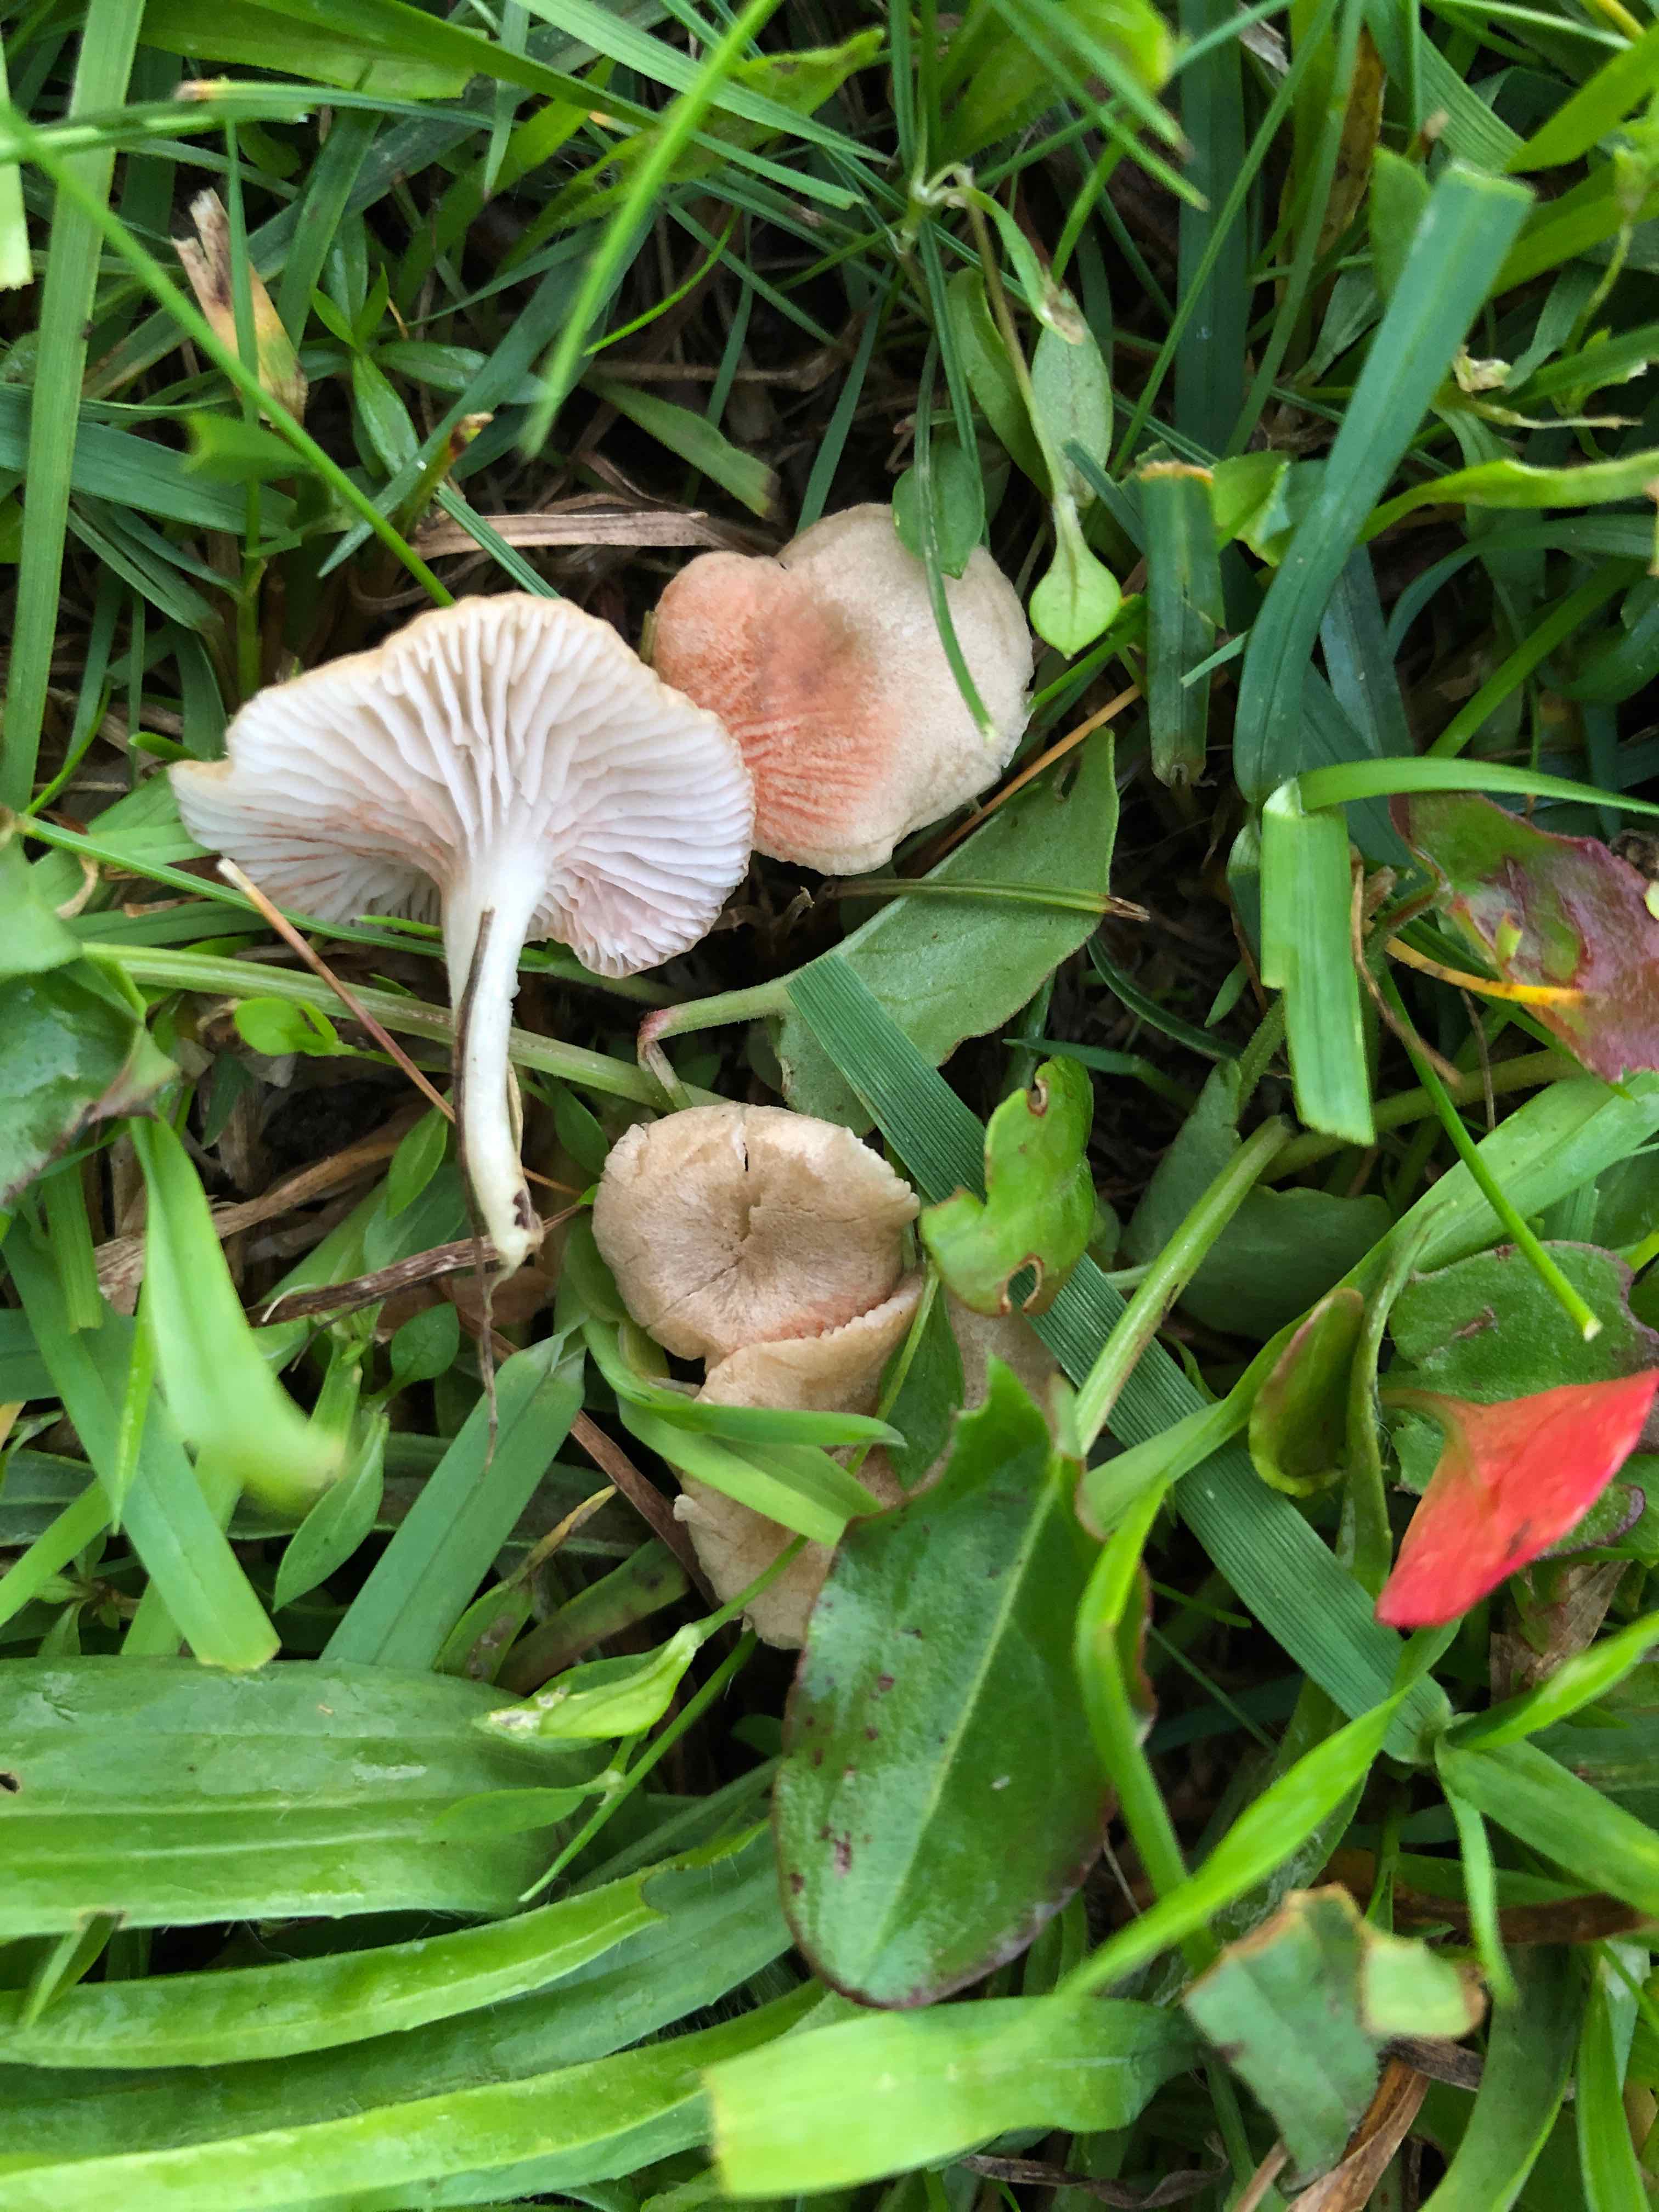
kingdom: Fungi
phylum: Basidiomycota
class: Agaricomycetes
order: Agaricales
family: Entolomataceae
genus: Entoloma
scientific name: Entoloma neglectum
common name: bleg rødblad
